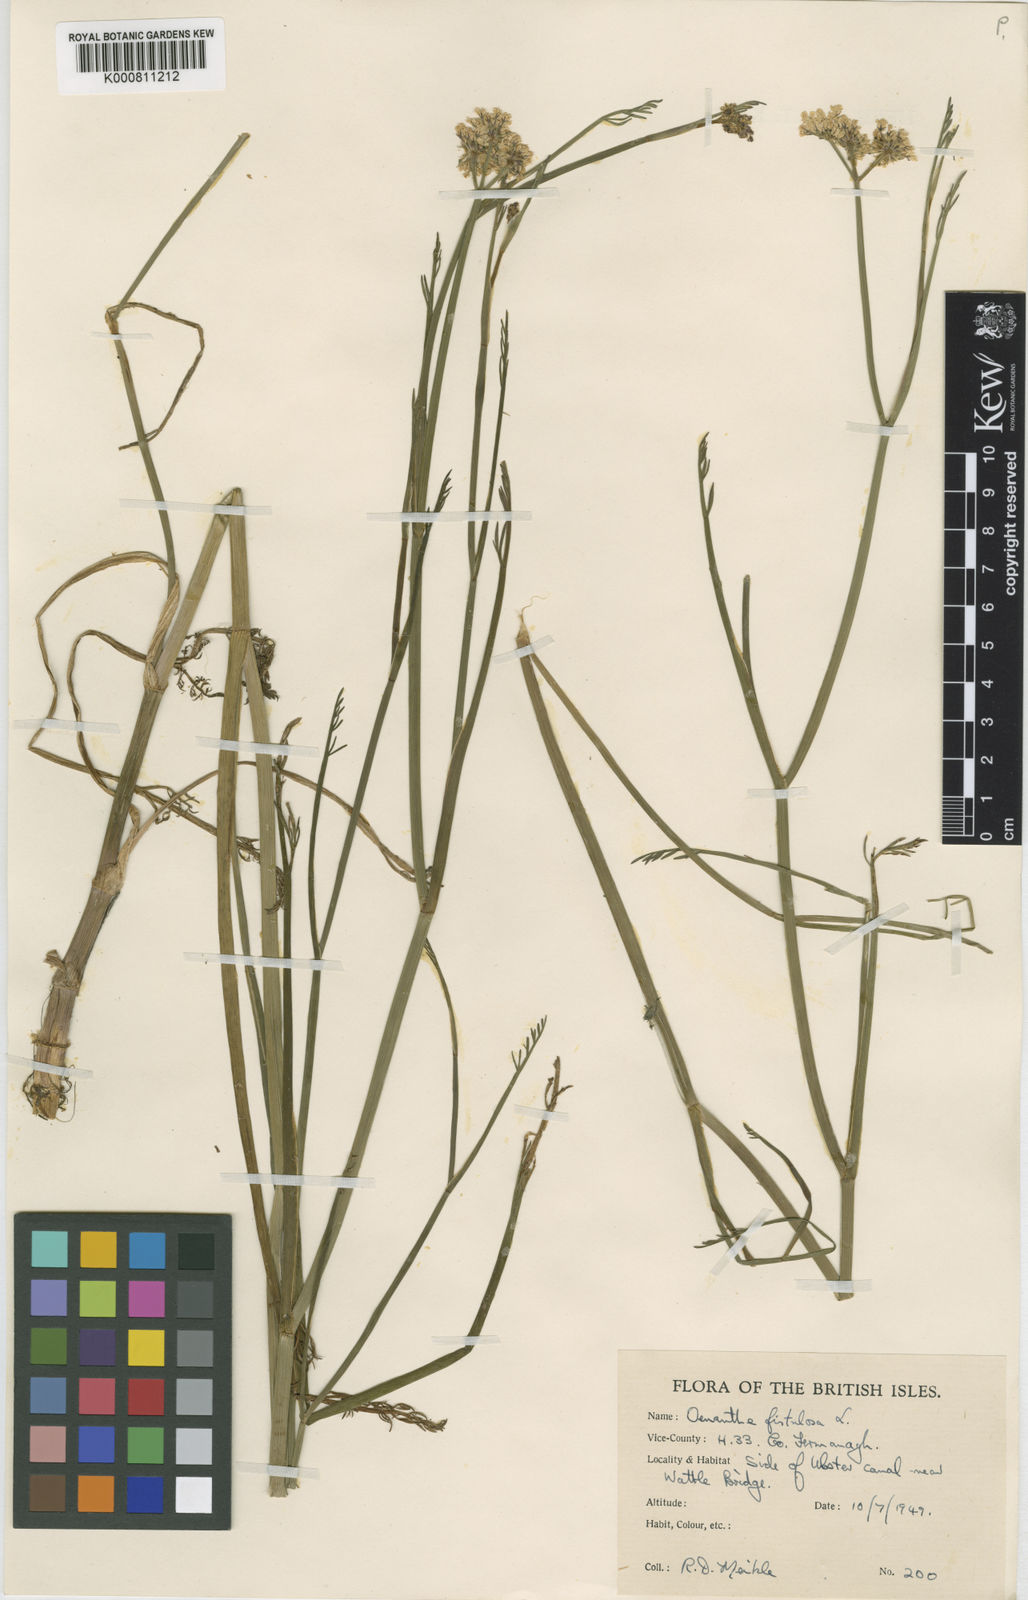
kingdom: Plantae
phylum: Tracheophyta
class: Magnoliopsida
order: Apiales
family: Apiaceae
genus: Oenanthe
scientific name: Oenanthe fistulosa
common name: Tubular water-dropwort
